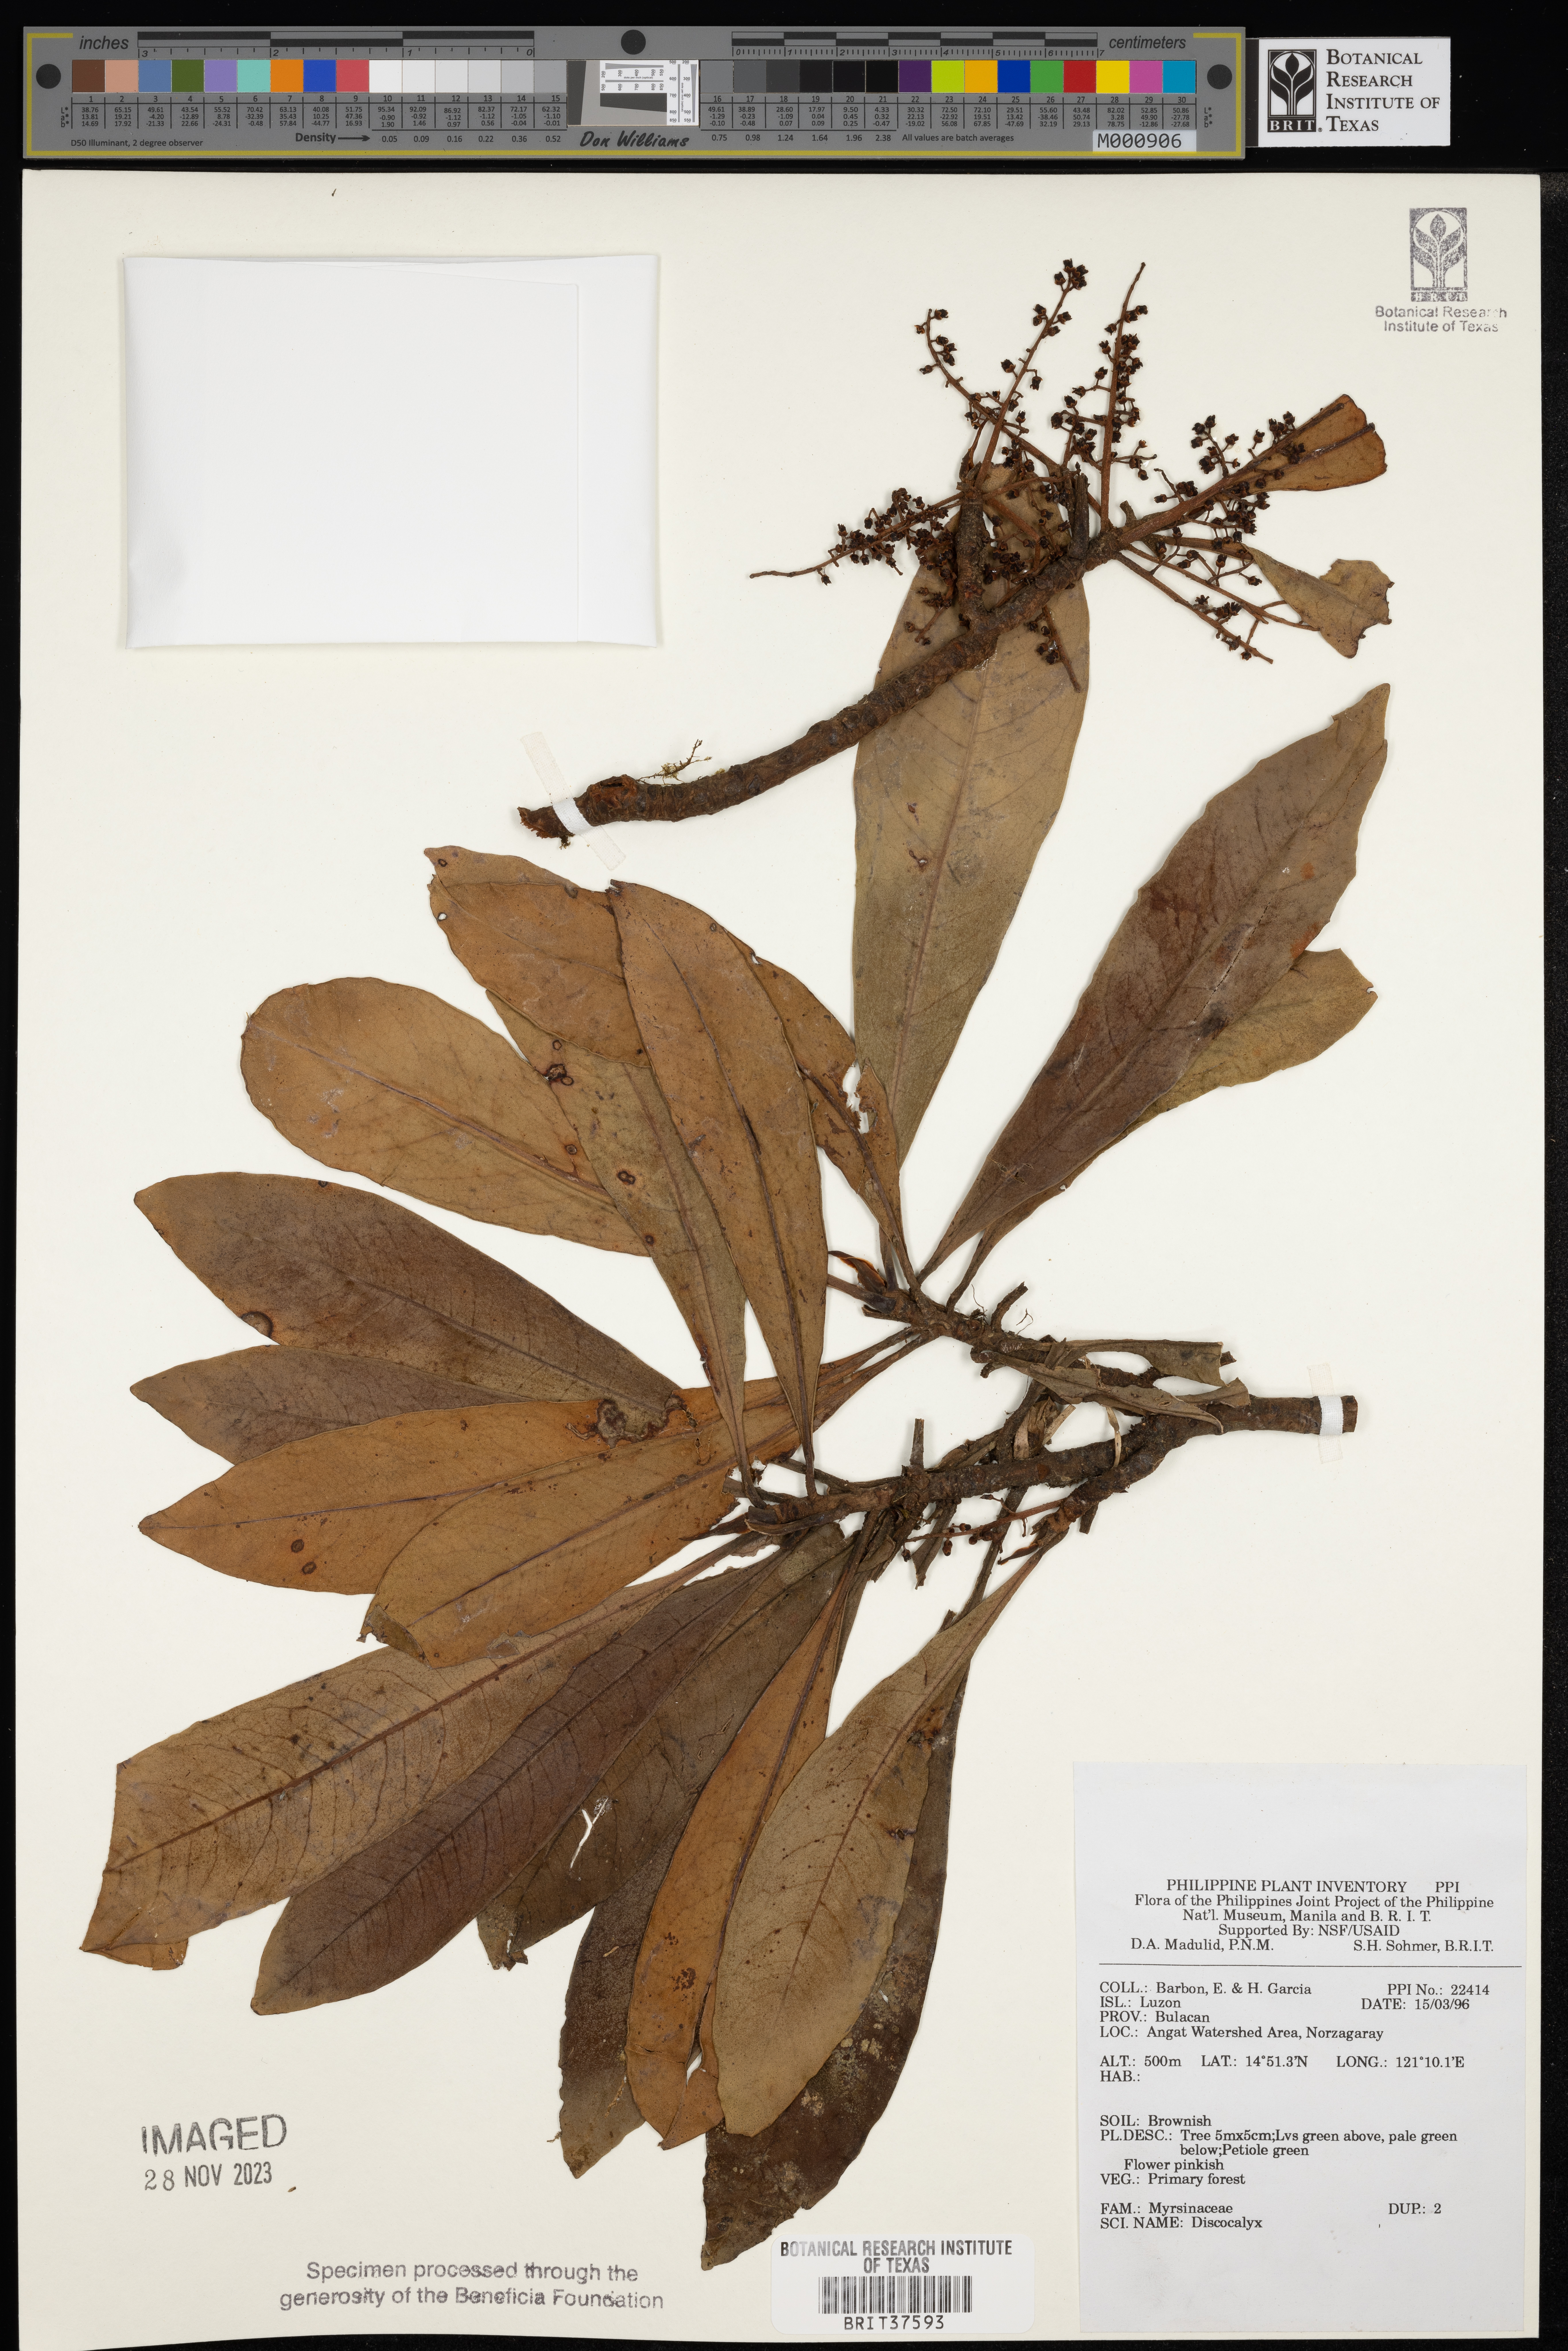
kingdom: Plantae
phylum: Tracheophyta
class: Magnoliopsida
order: Ericales
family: Primulaceae
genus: Discocalyx
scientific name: Discocalyx
